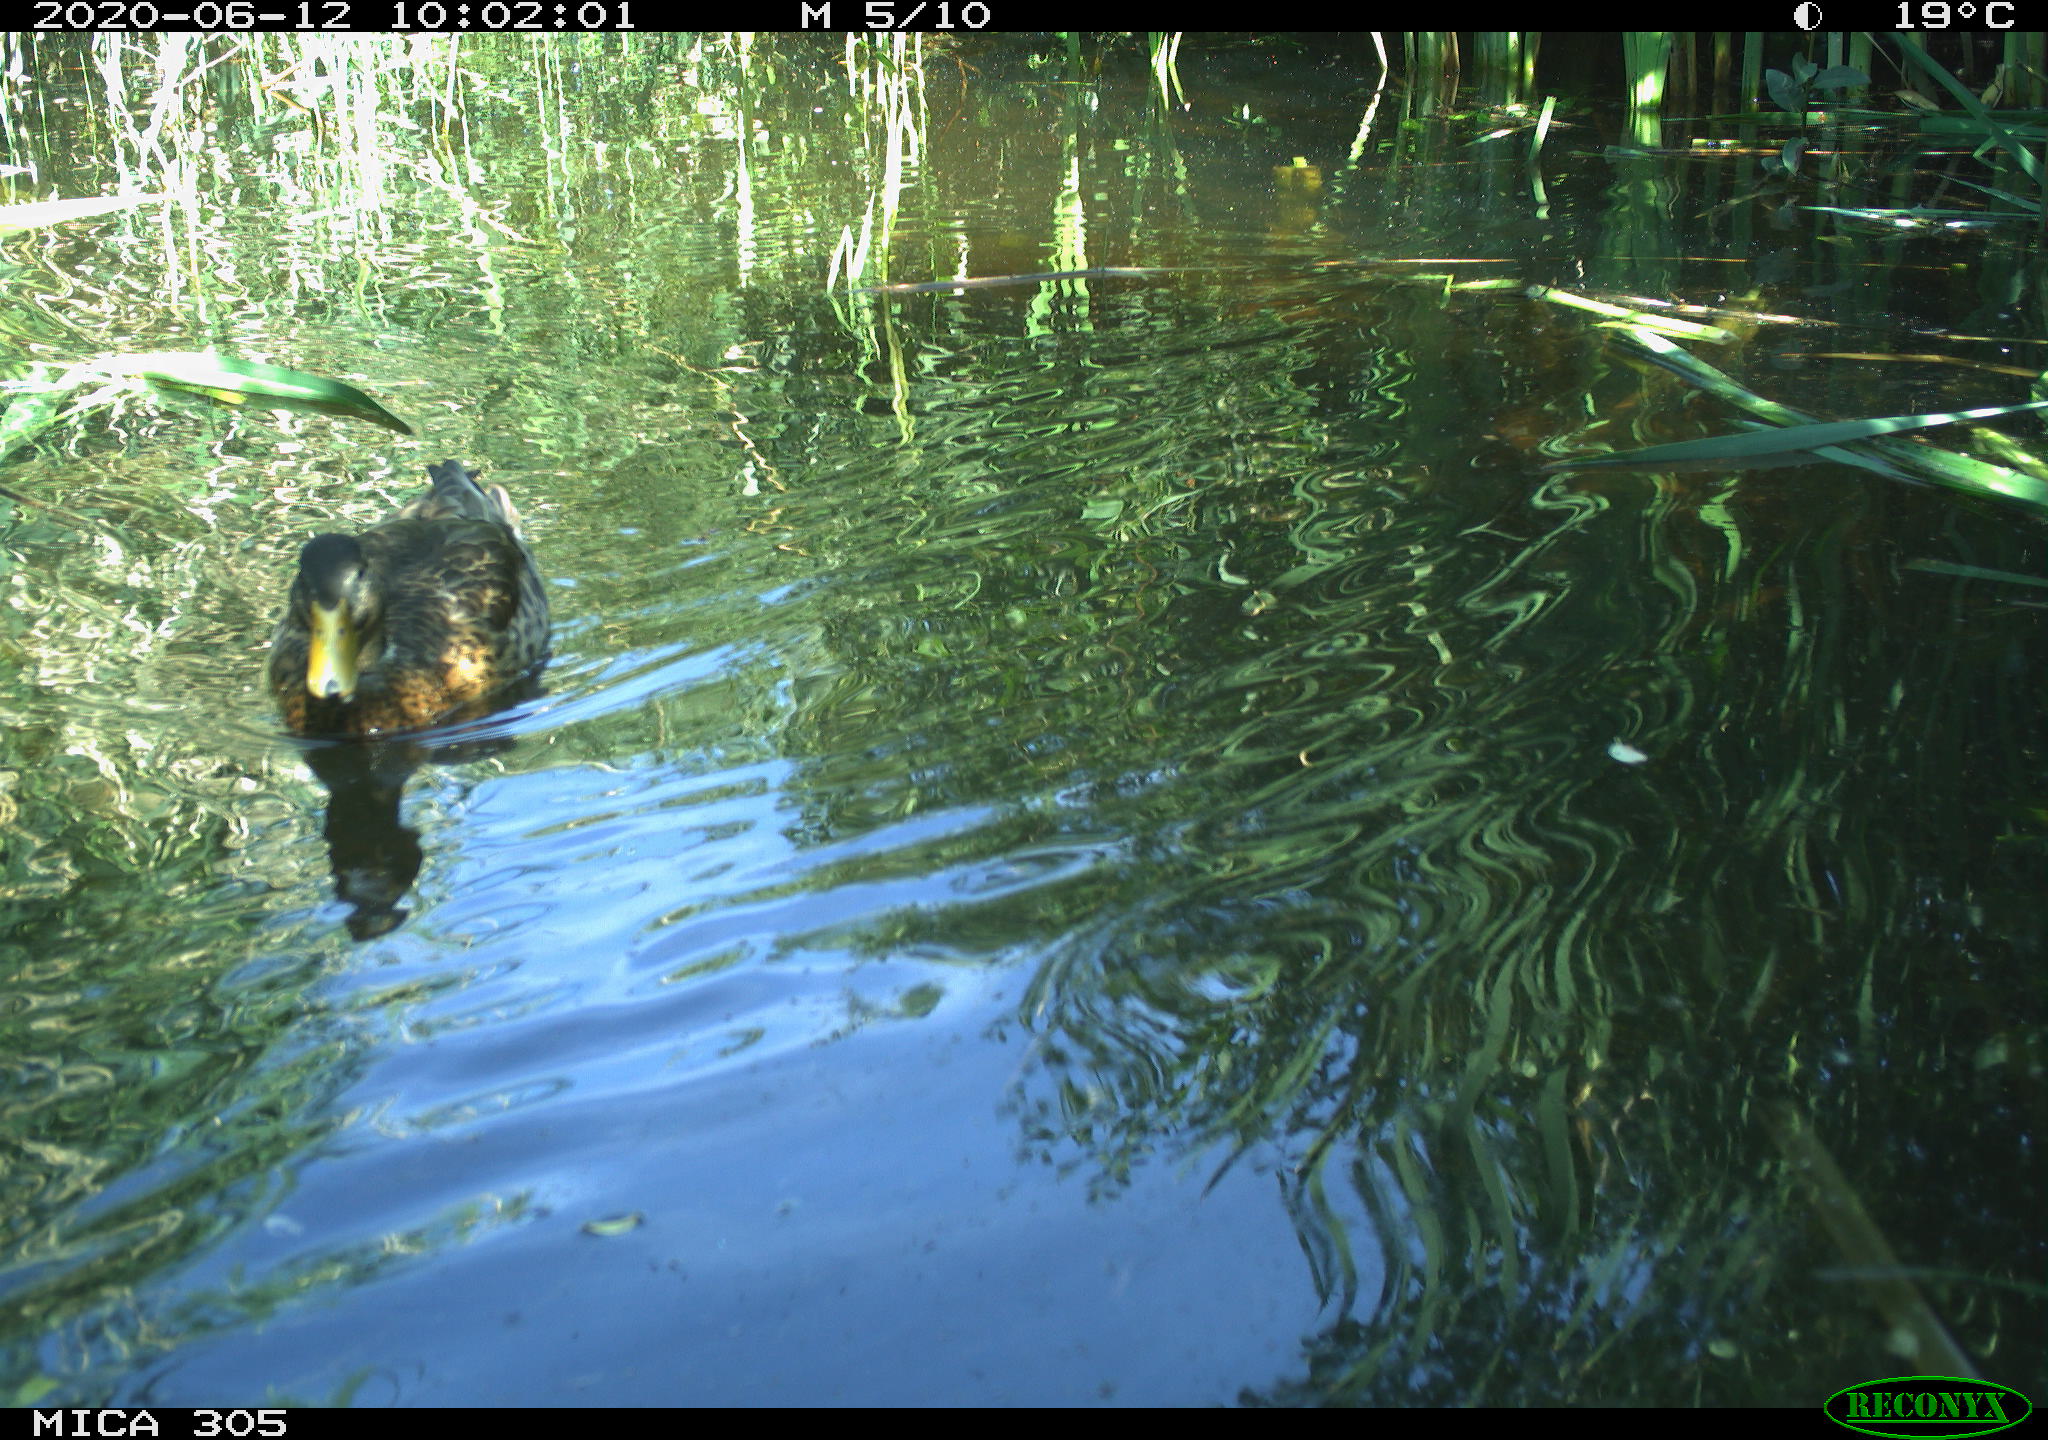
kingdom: Animalia
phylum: Chordata
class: Aves
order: Anseriformes
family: Anatidae
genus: Anas
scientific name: Anas platyrhynchos
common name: Mallard
